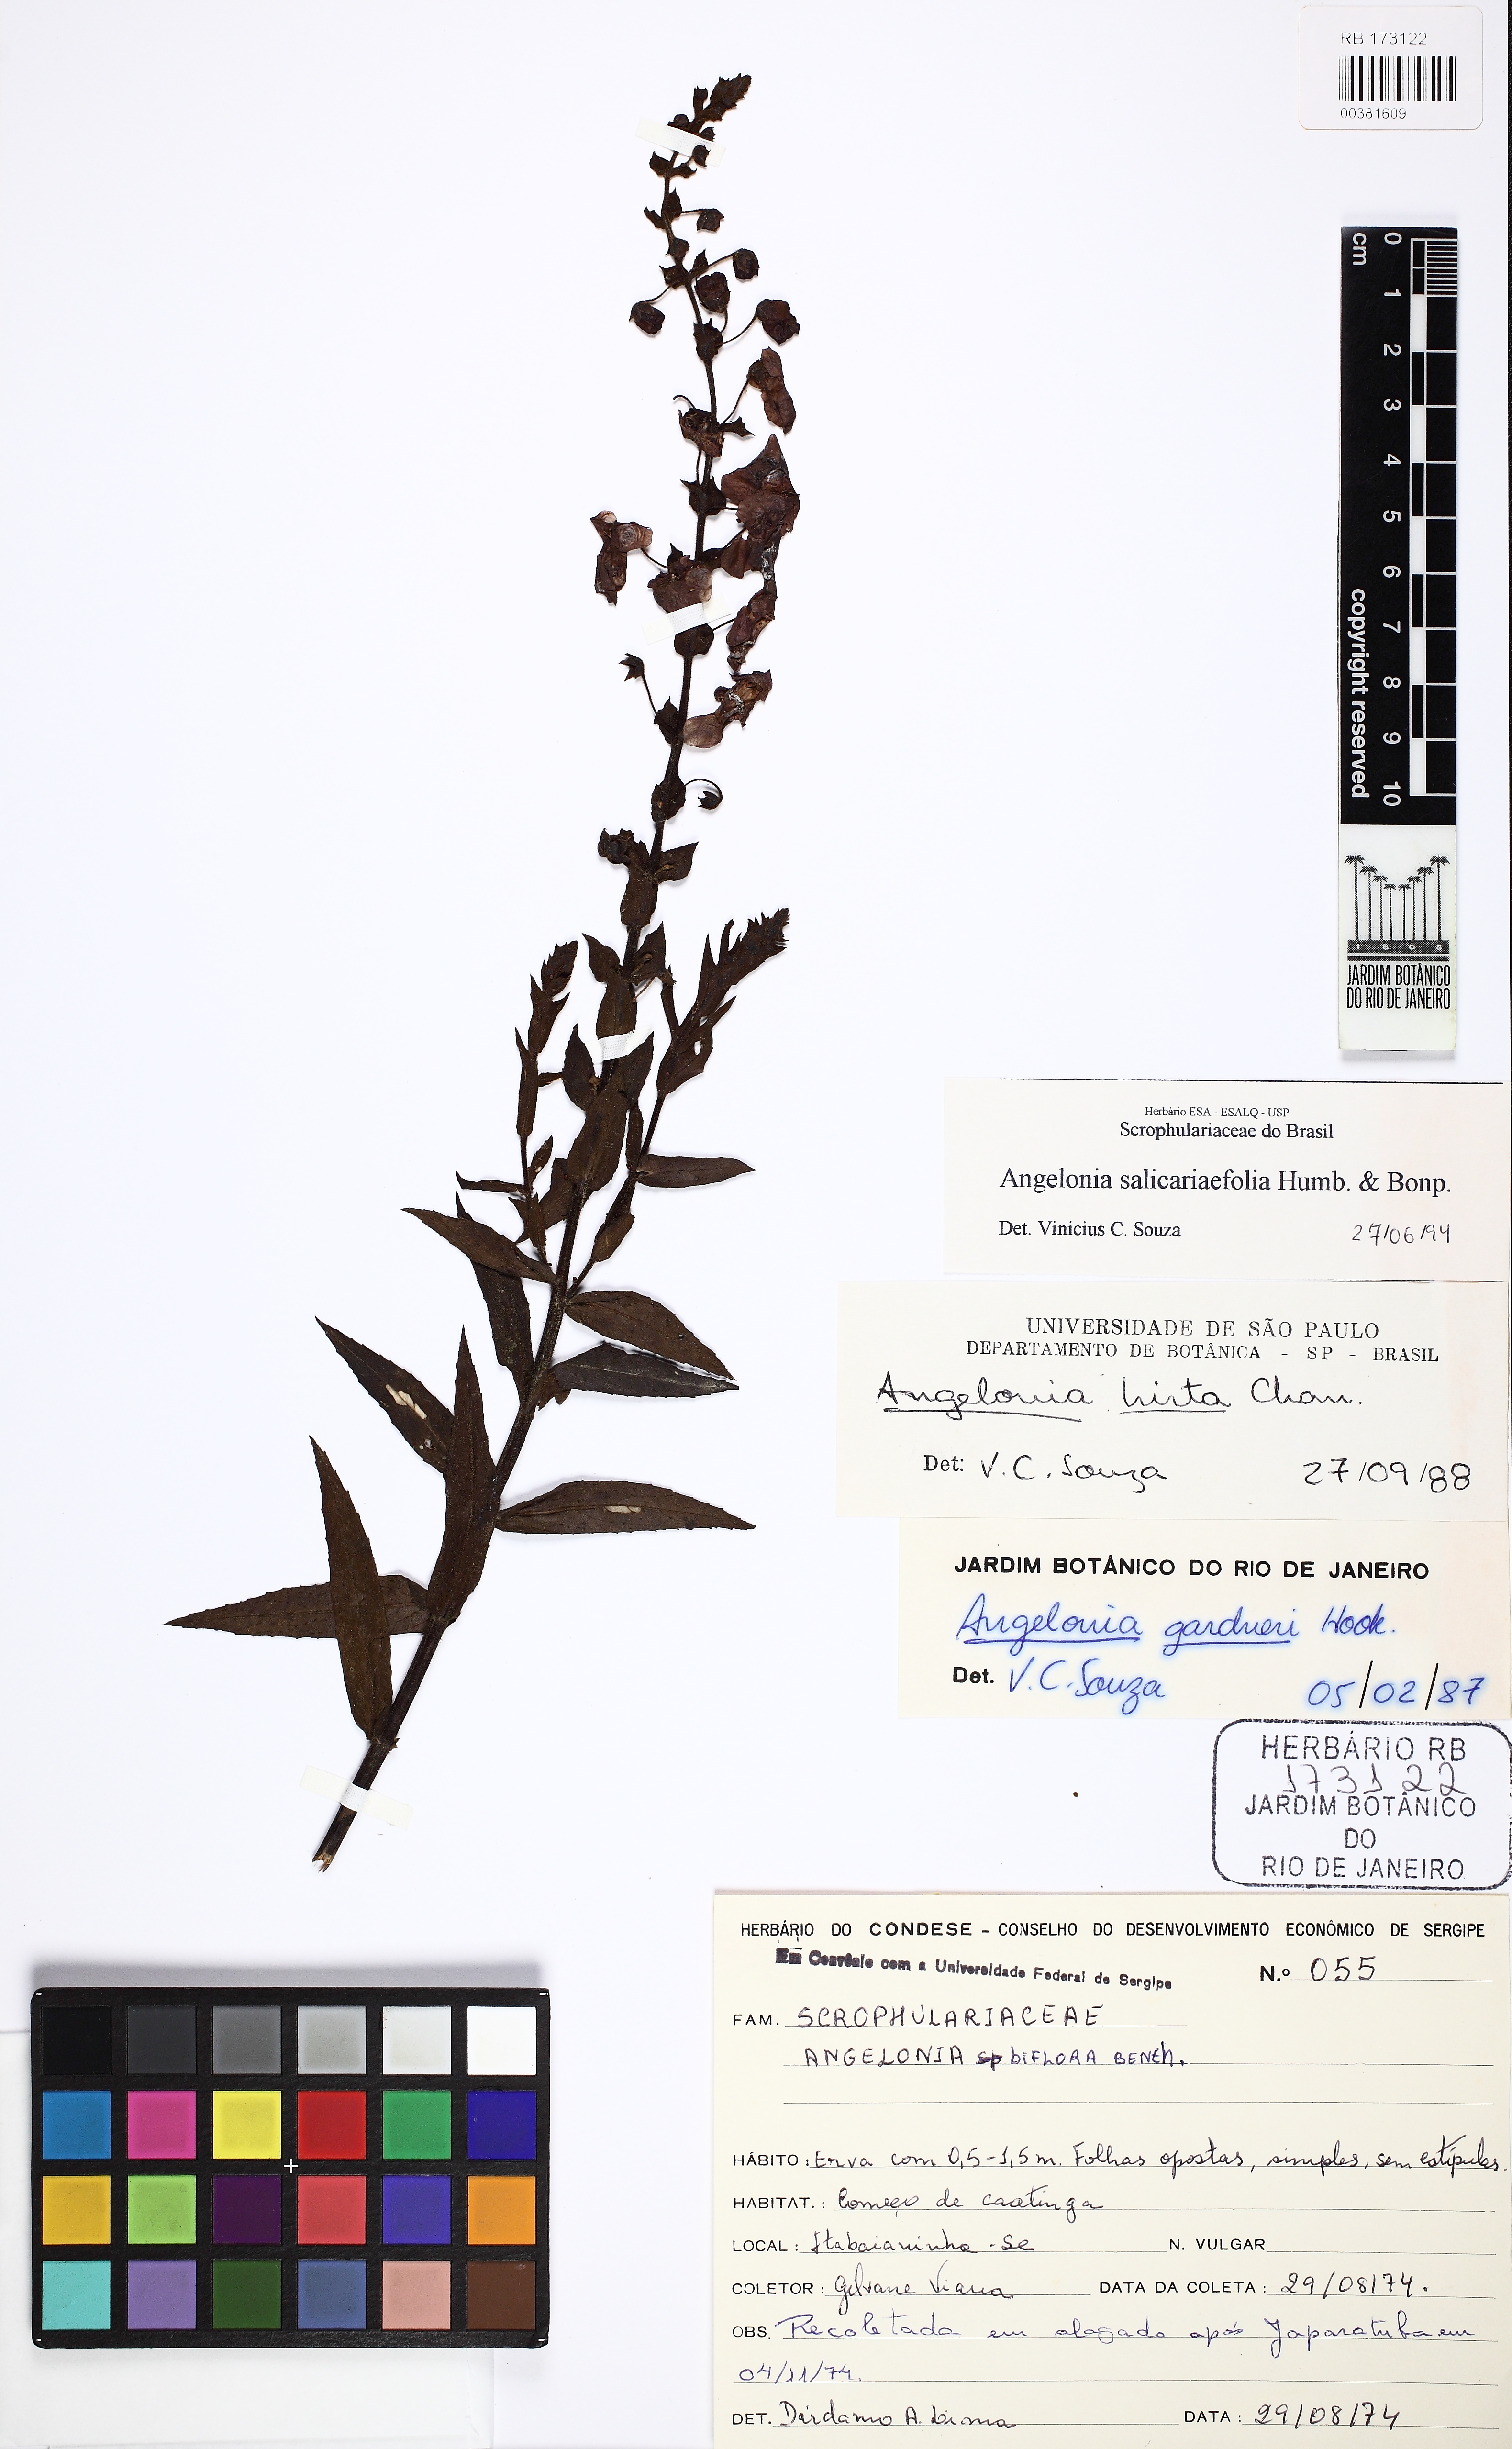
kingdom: Plantae
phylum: Tracheophyta
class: Magnoliopsida
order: Lamiales
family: Plantaginaceae
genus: Angelonia
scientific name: Angelonia salicariifolia
